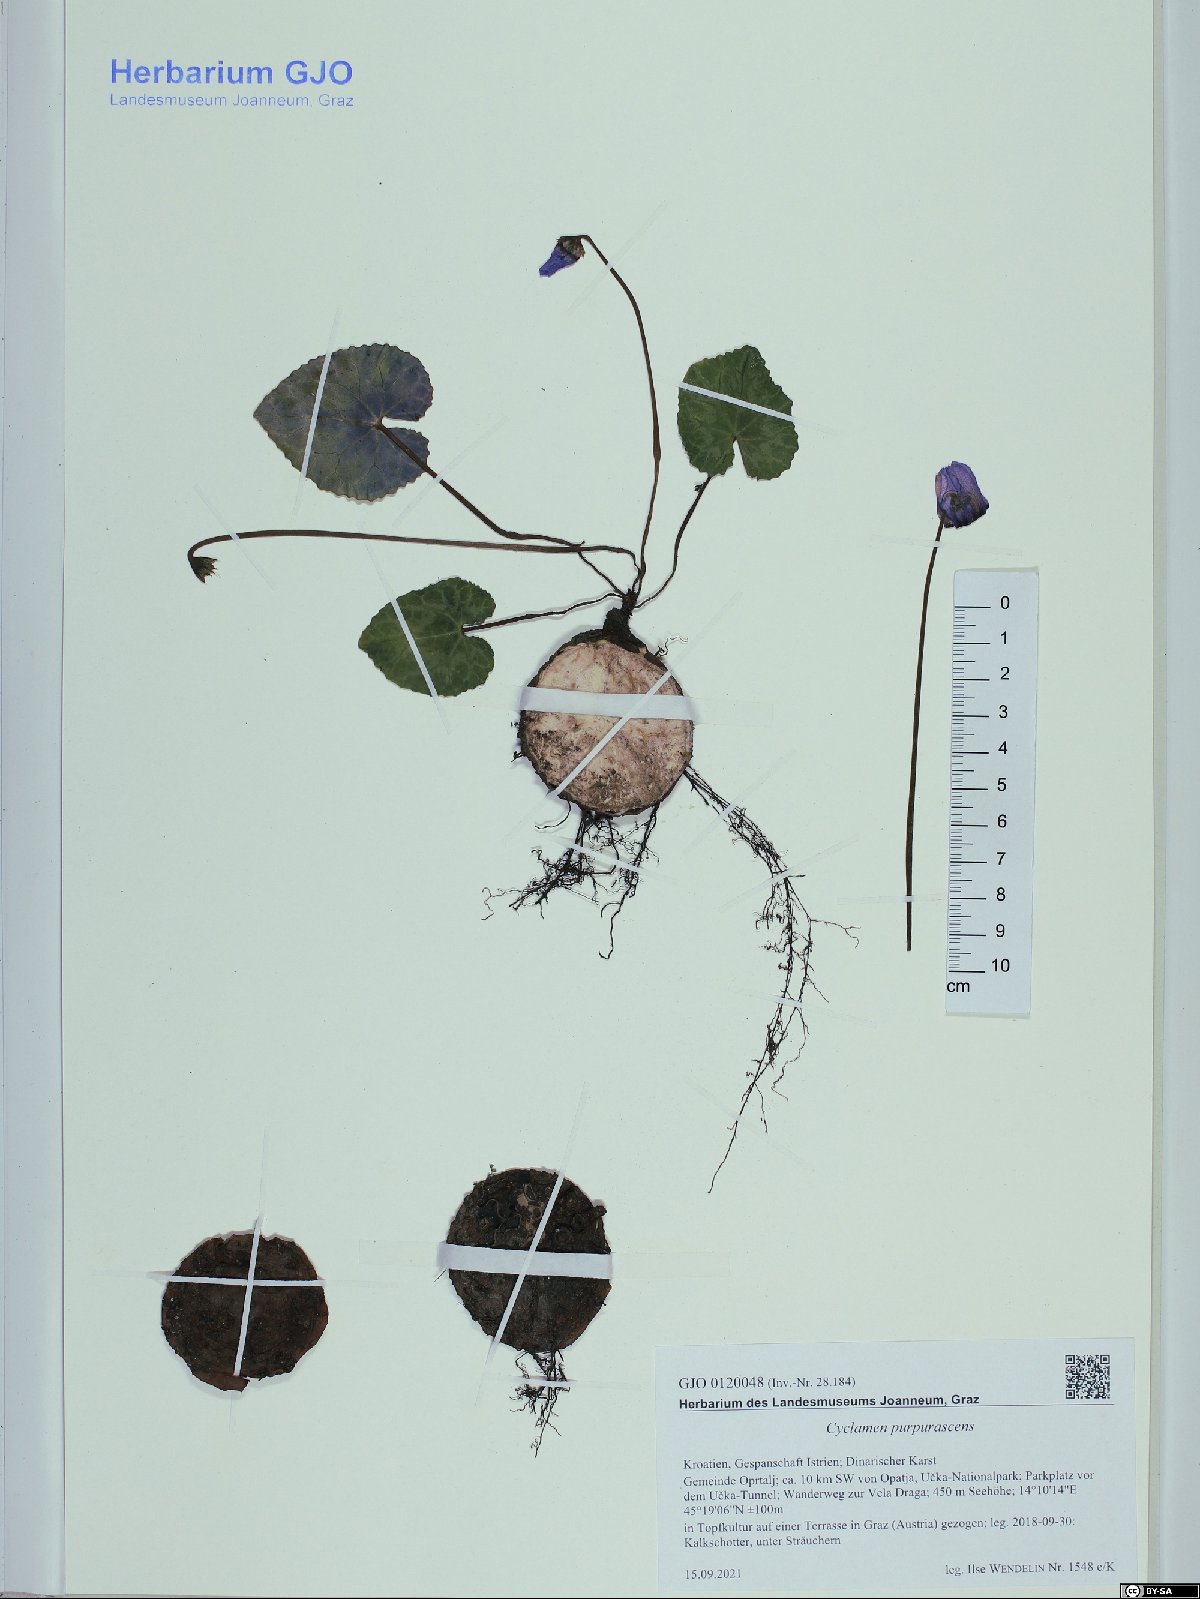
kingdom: Plantae
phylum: Tracheophyta
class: Magnoliopsida
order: Ericales
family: Primulaceae
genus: Cyclamen
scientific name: Cyclamen purpurascens
